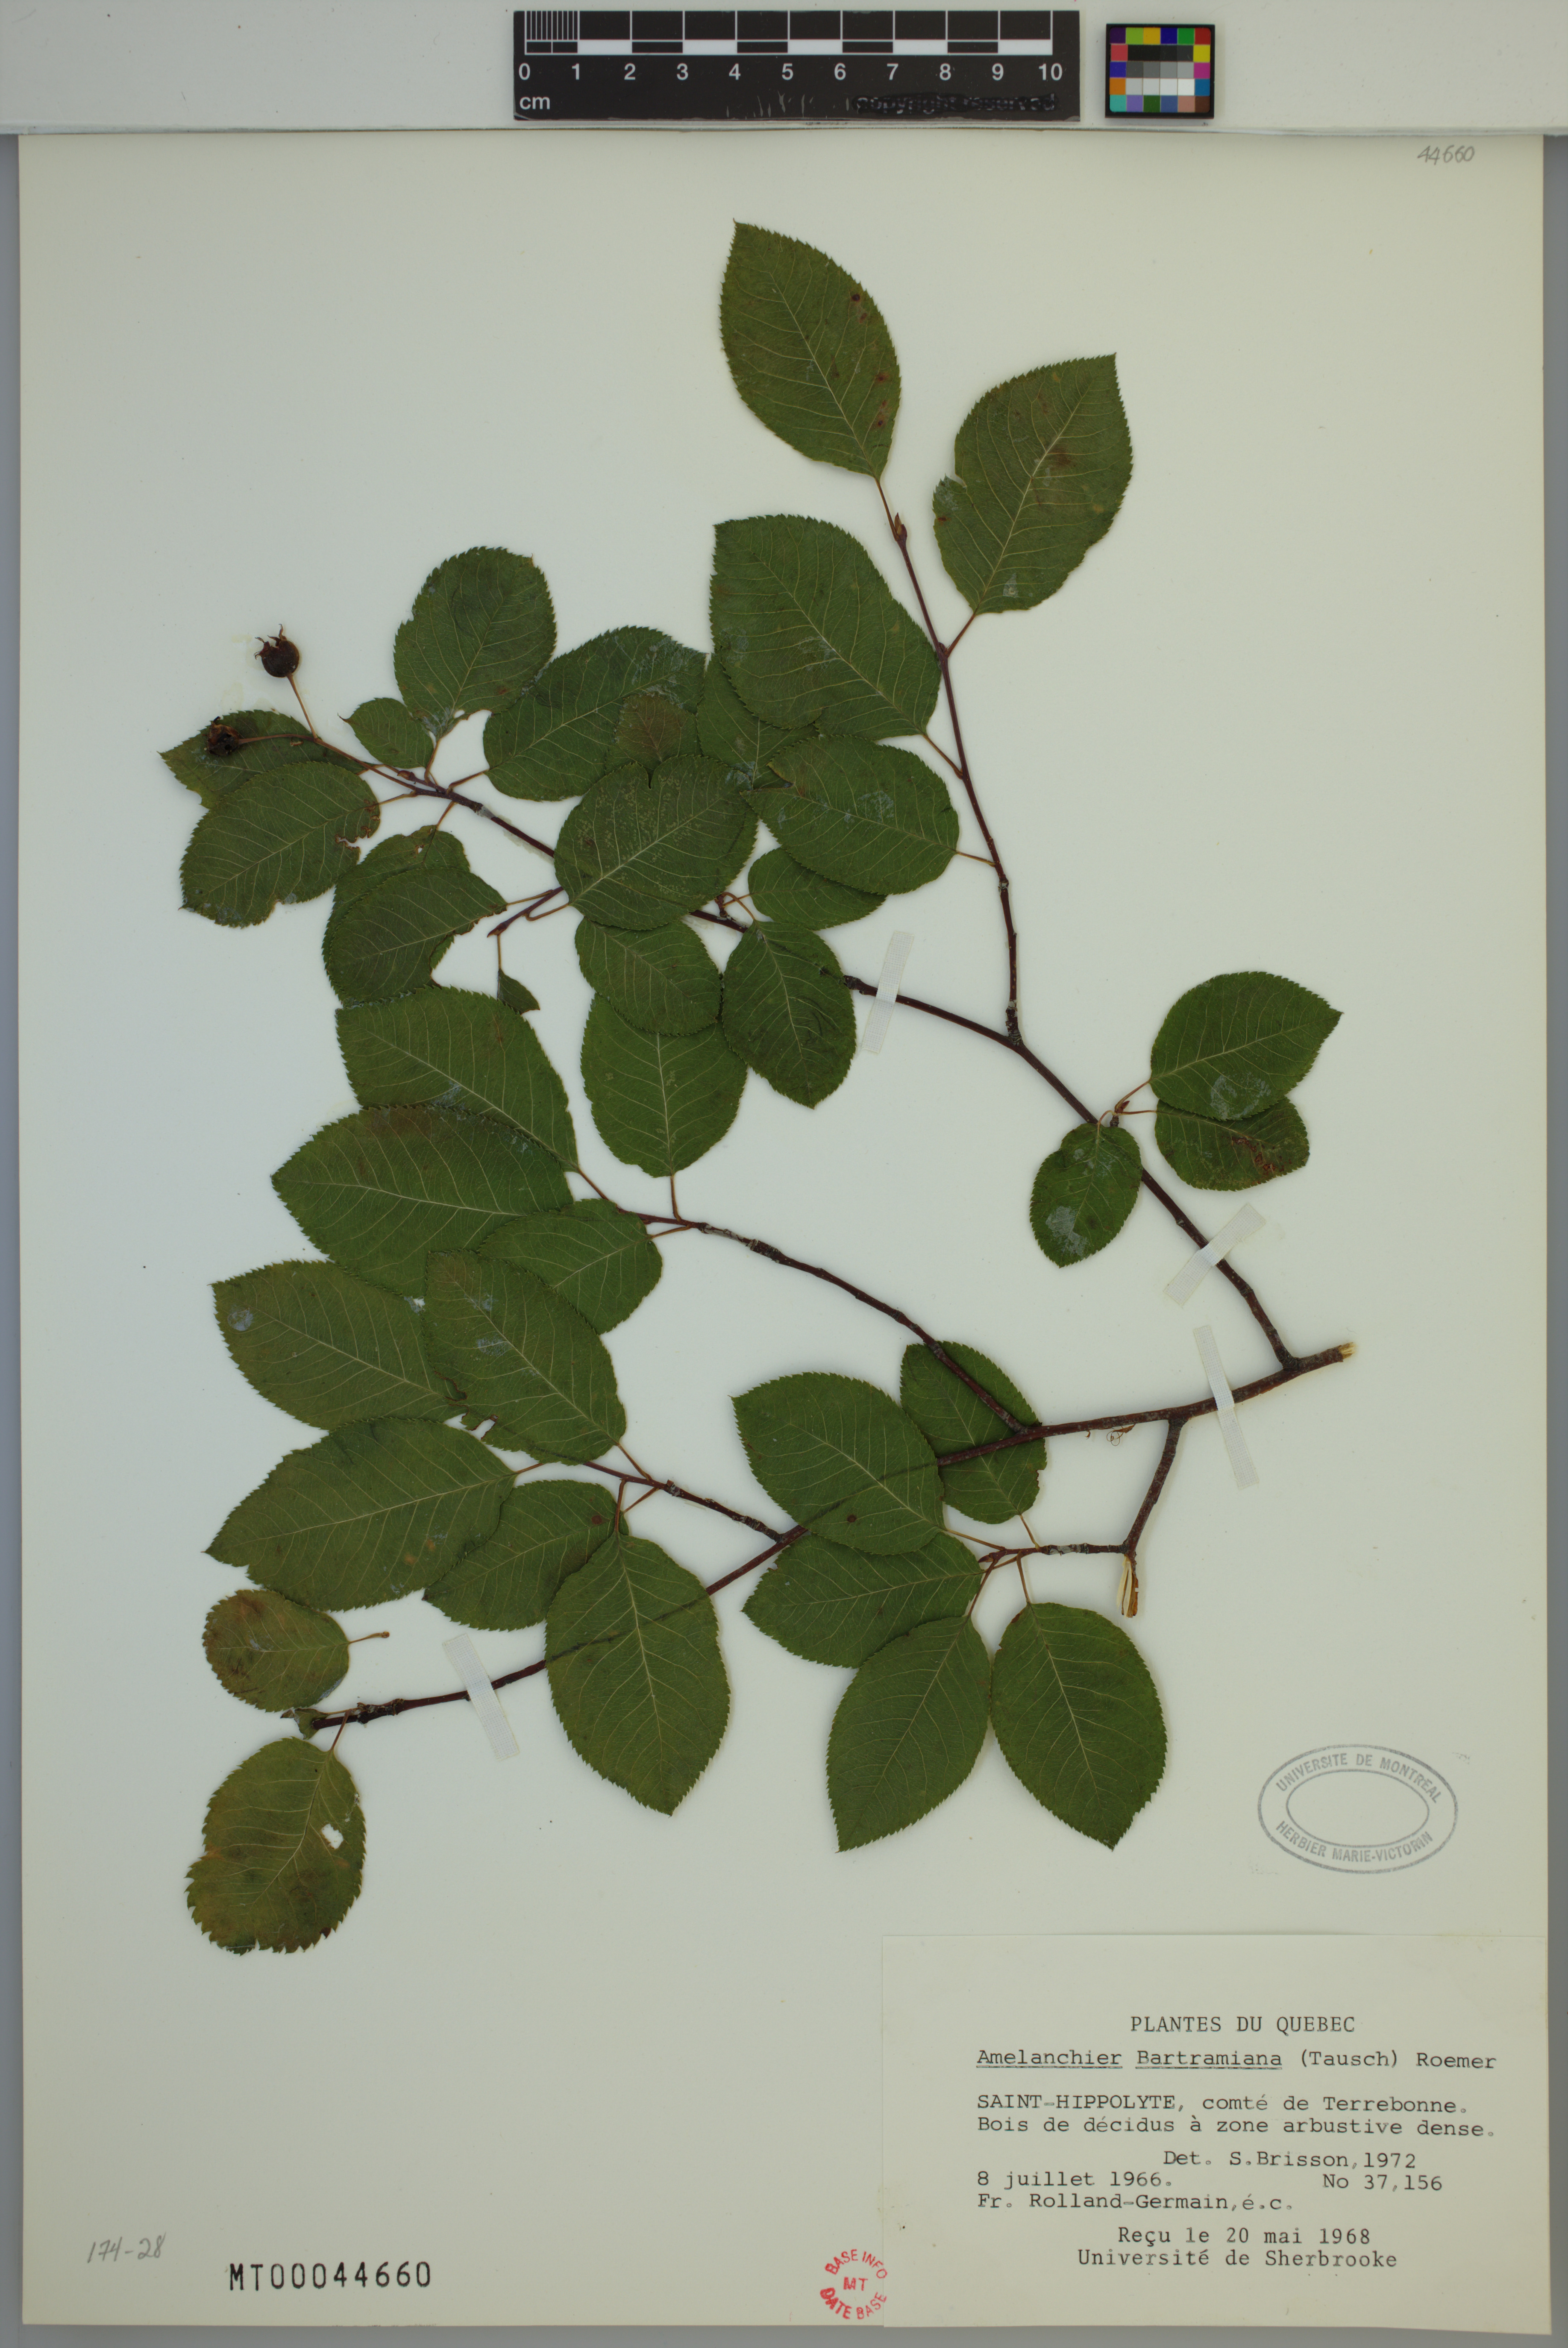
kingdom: Plantae
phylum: Tracheophyta
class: Magnoliopsida
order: Rosales
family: Rosaceae
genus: Amelanchier
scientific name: Amelanchier bartramiana
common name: Mountain serviceberry
